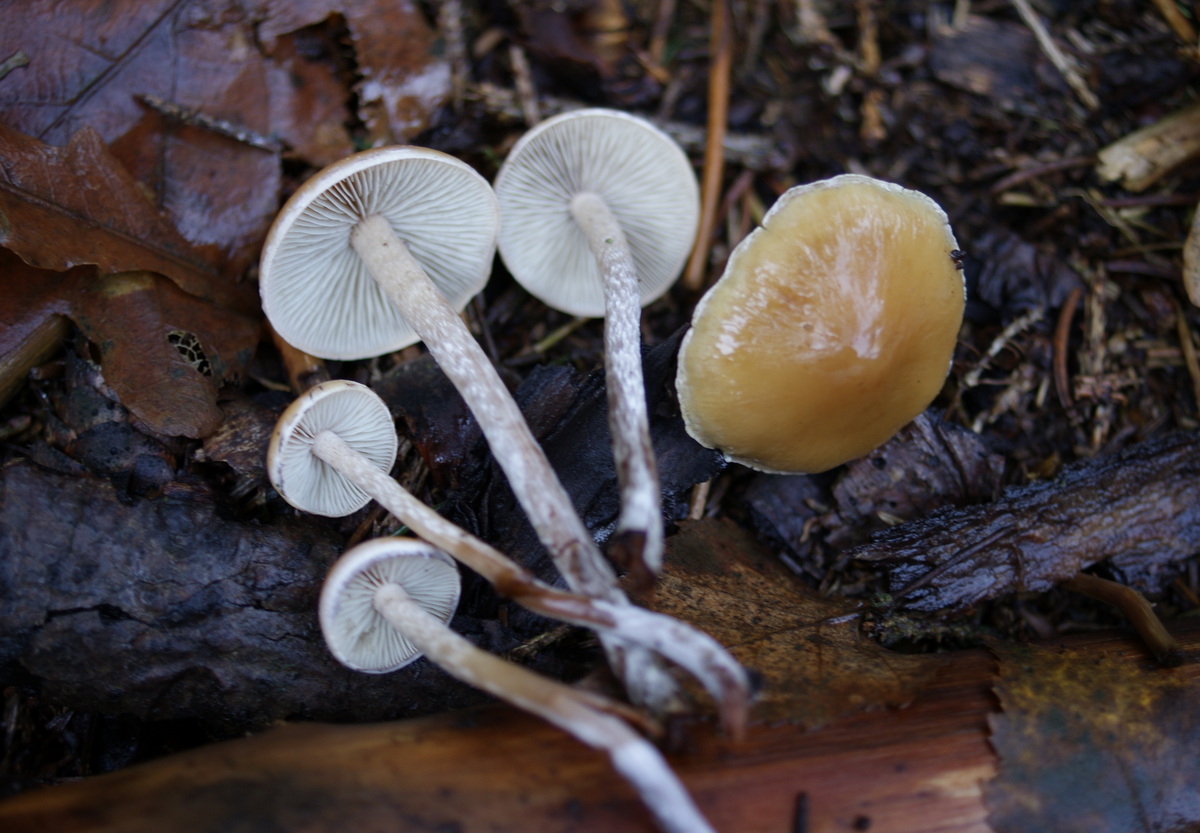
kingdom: Fungi
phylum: Basidiomycota
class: Agaricomycetes
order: Agaricales
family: Strophariaceae
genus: Hypholoma
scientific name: Hypholoma marginatum
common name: enlig svovlhat
